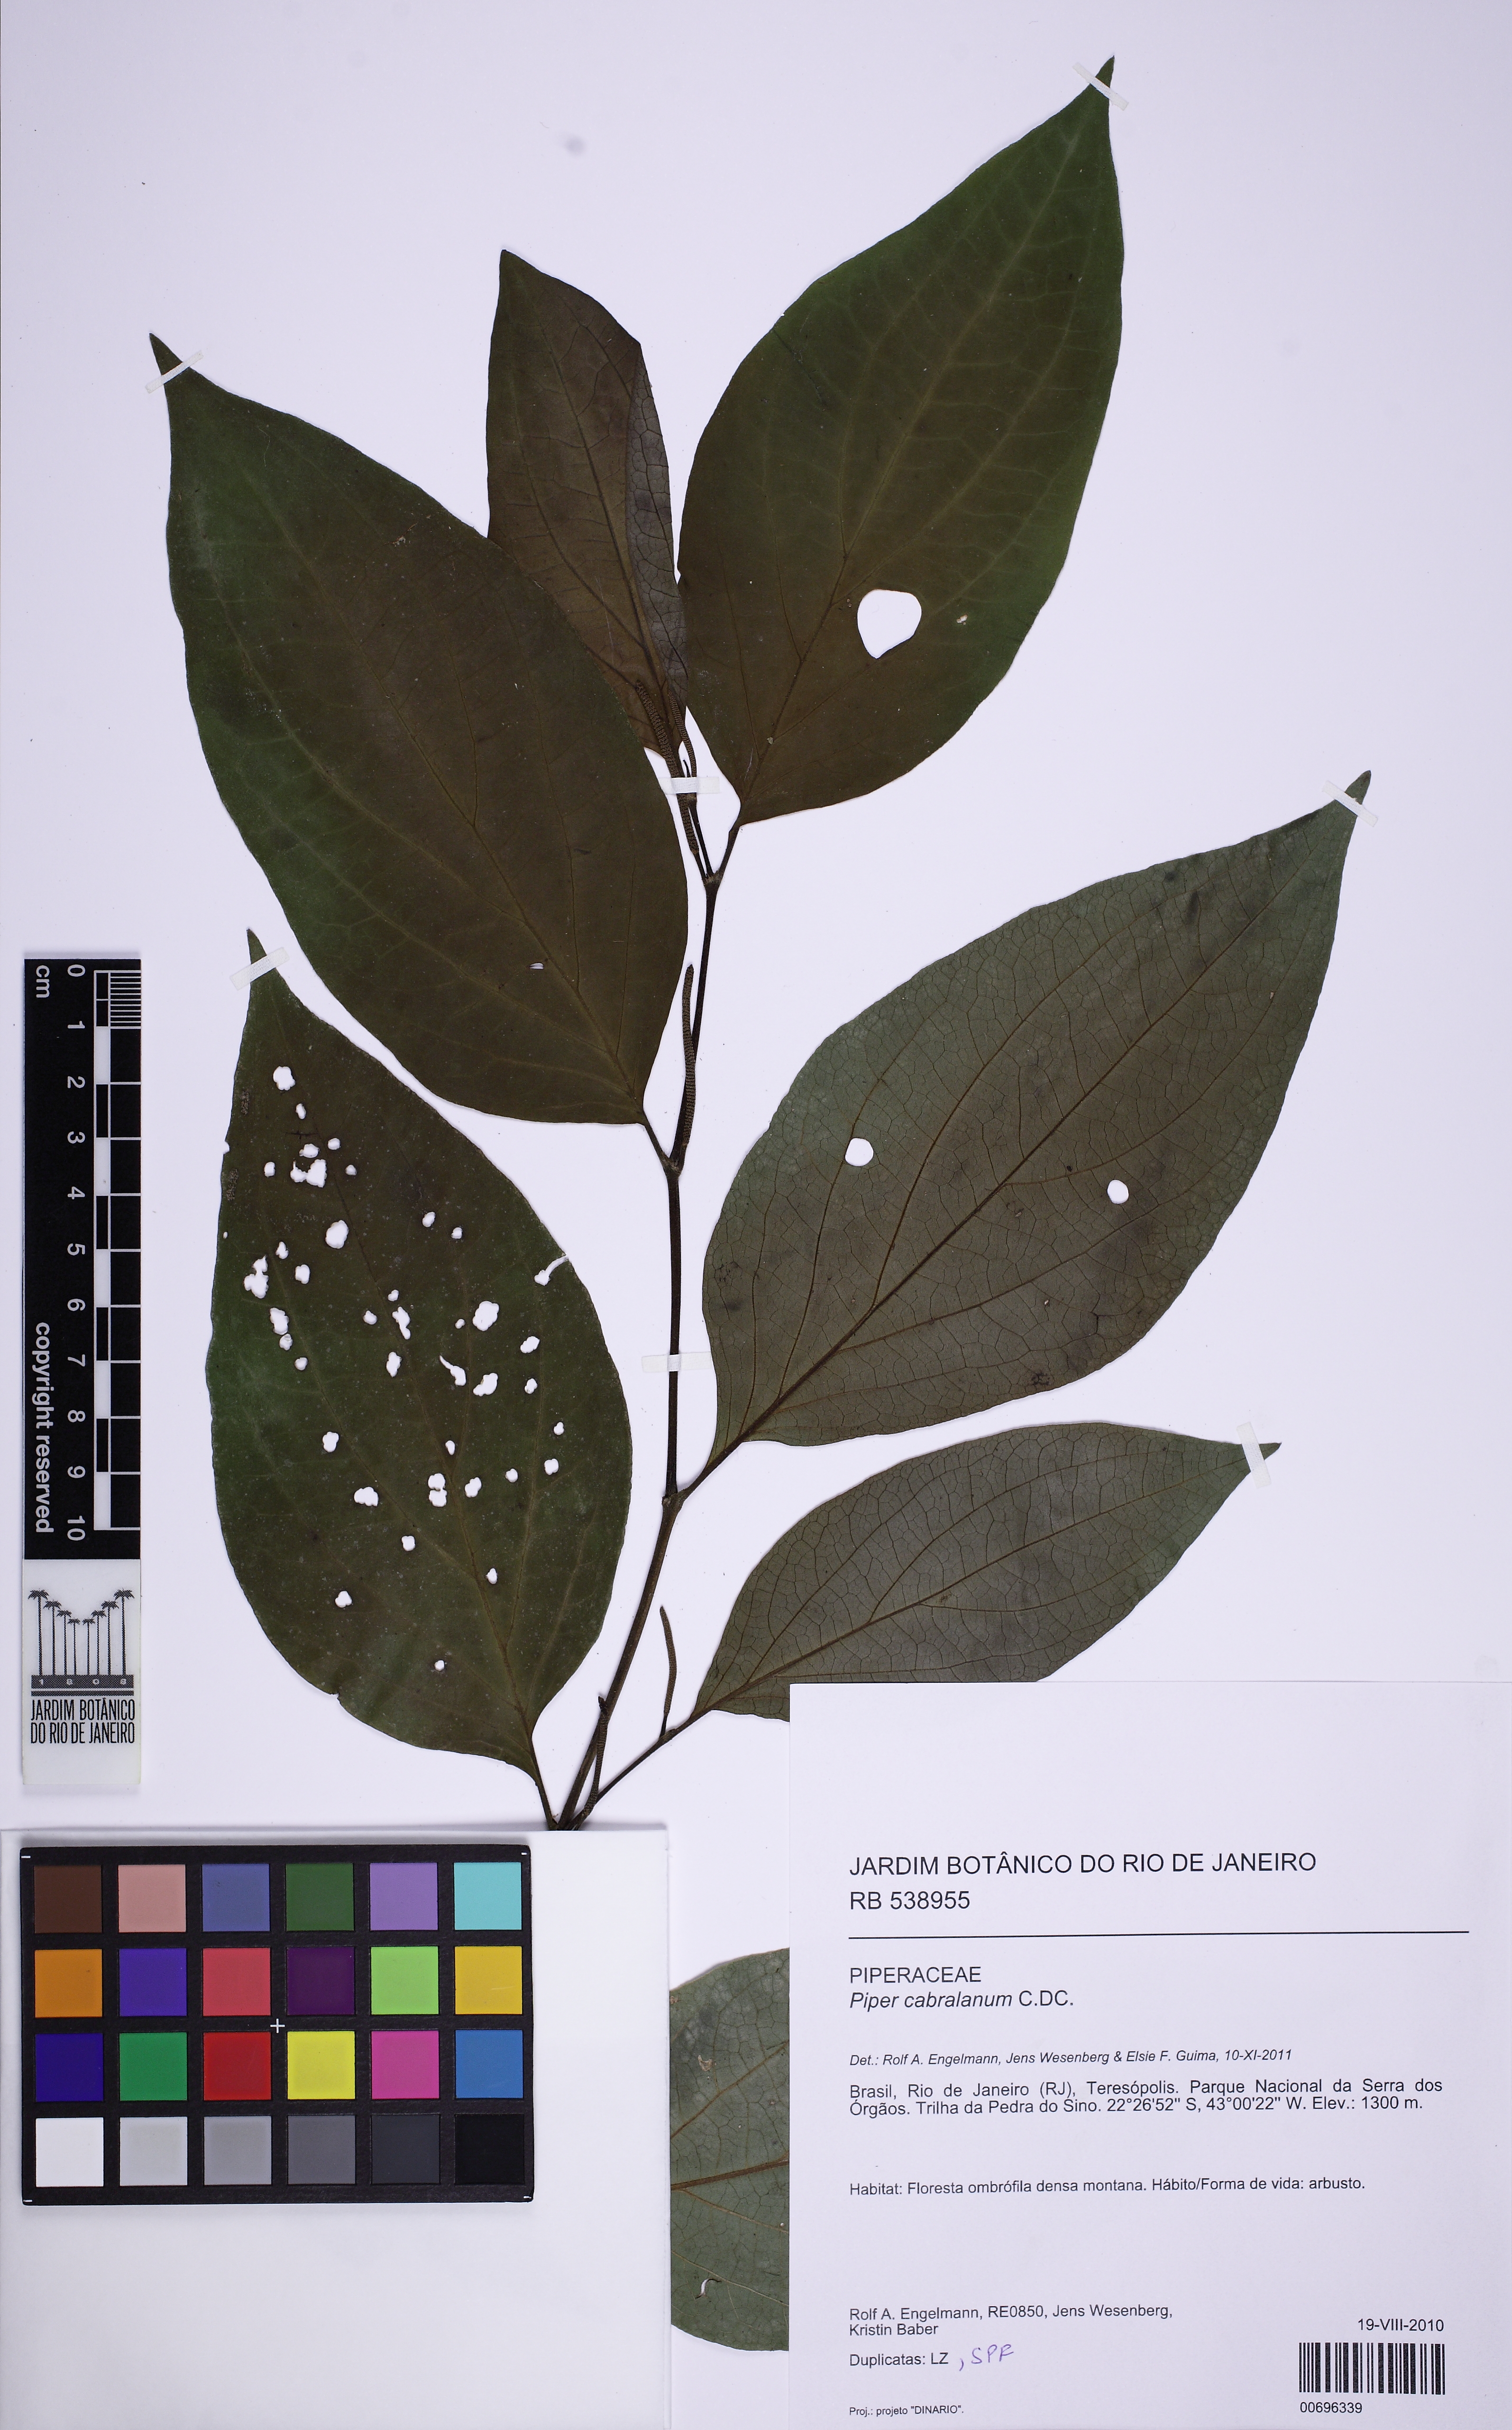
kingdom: Plantae
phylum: Tracheophyta
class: Magnoliopsida
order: Piperales
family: Piperaceae
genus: Piper
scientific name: Piper cabralanum
